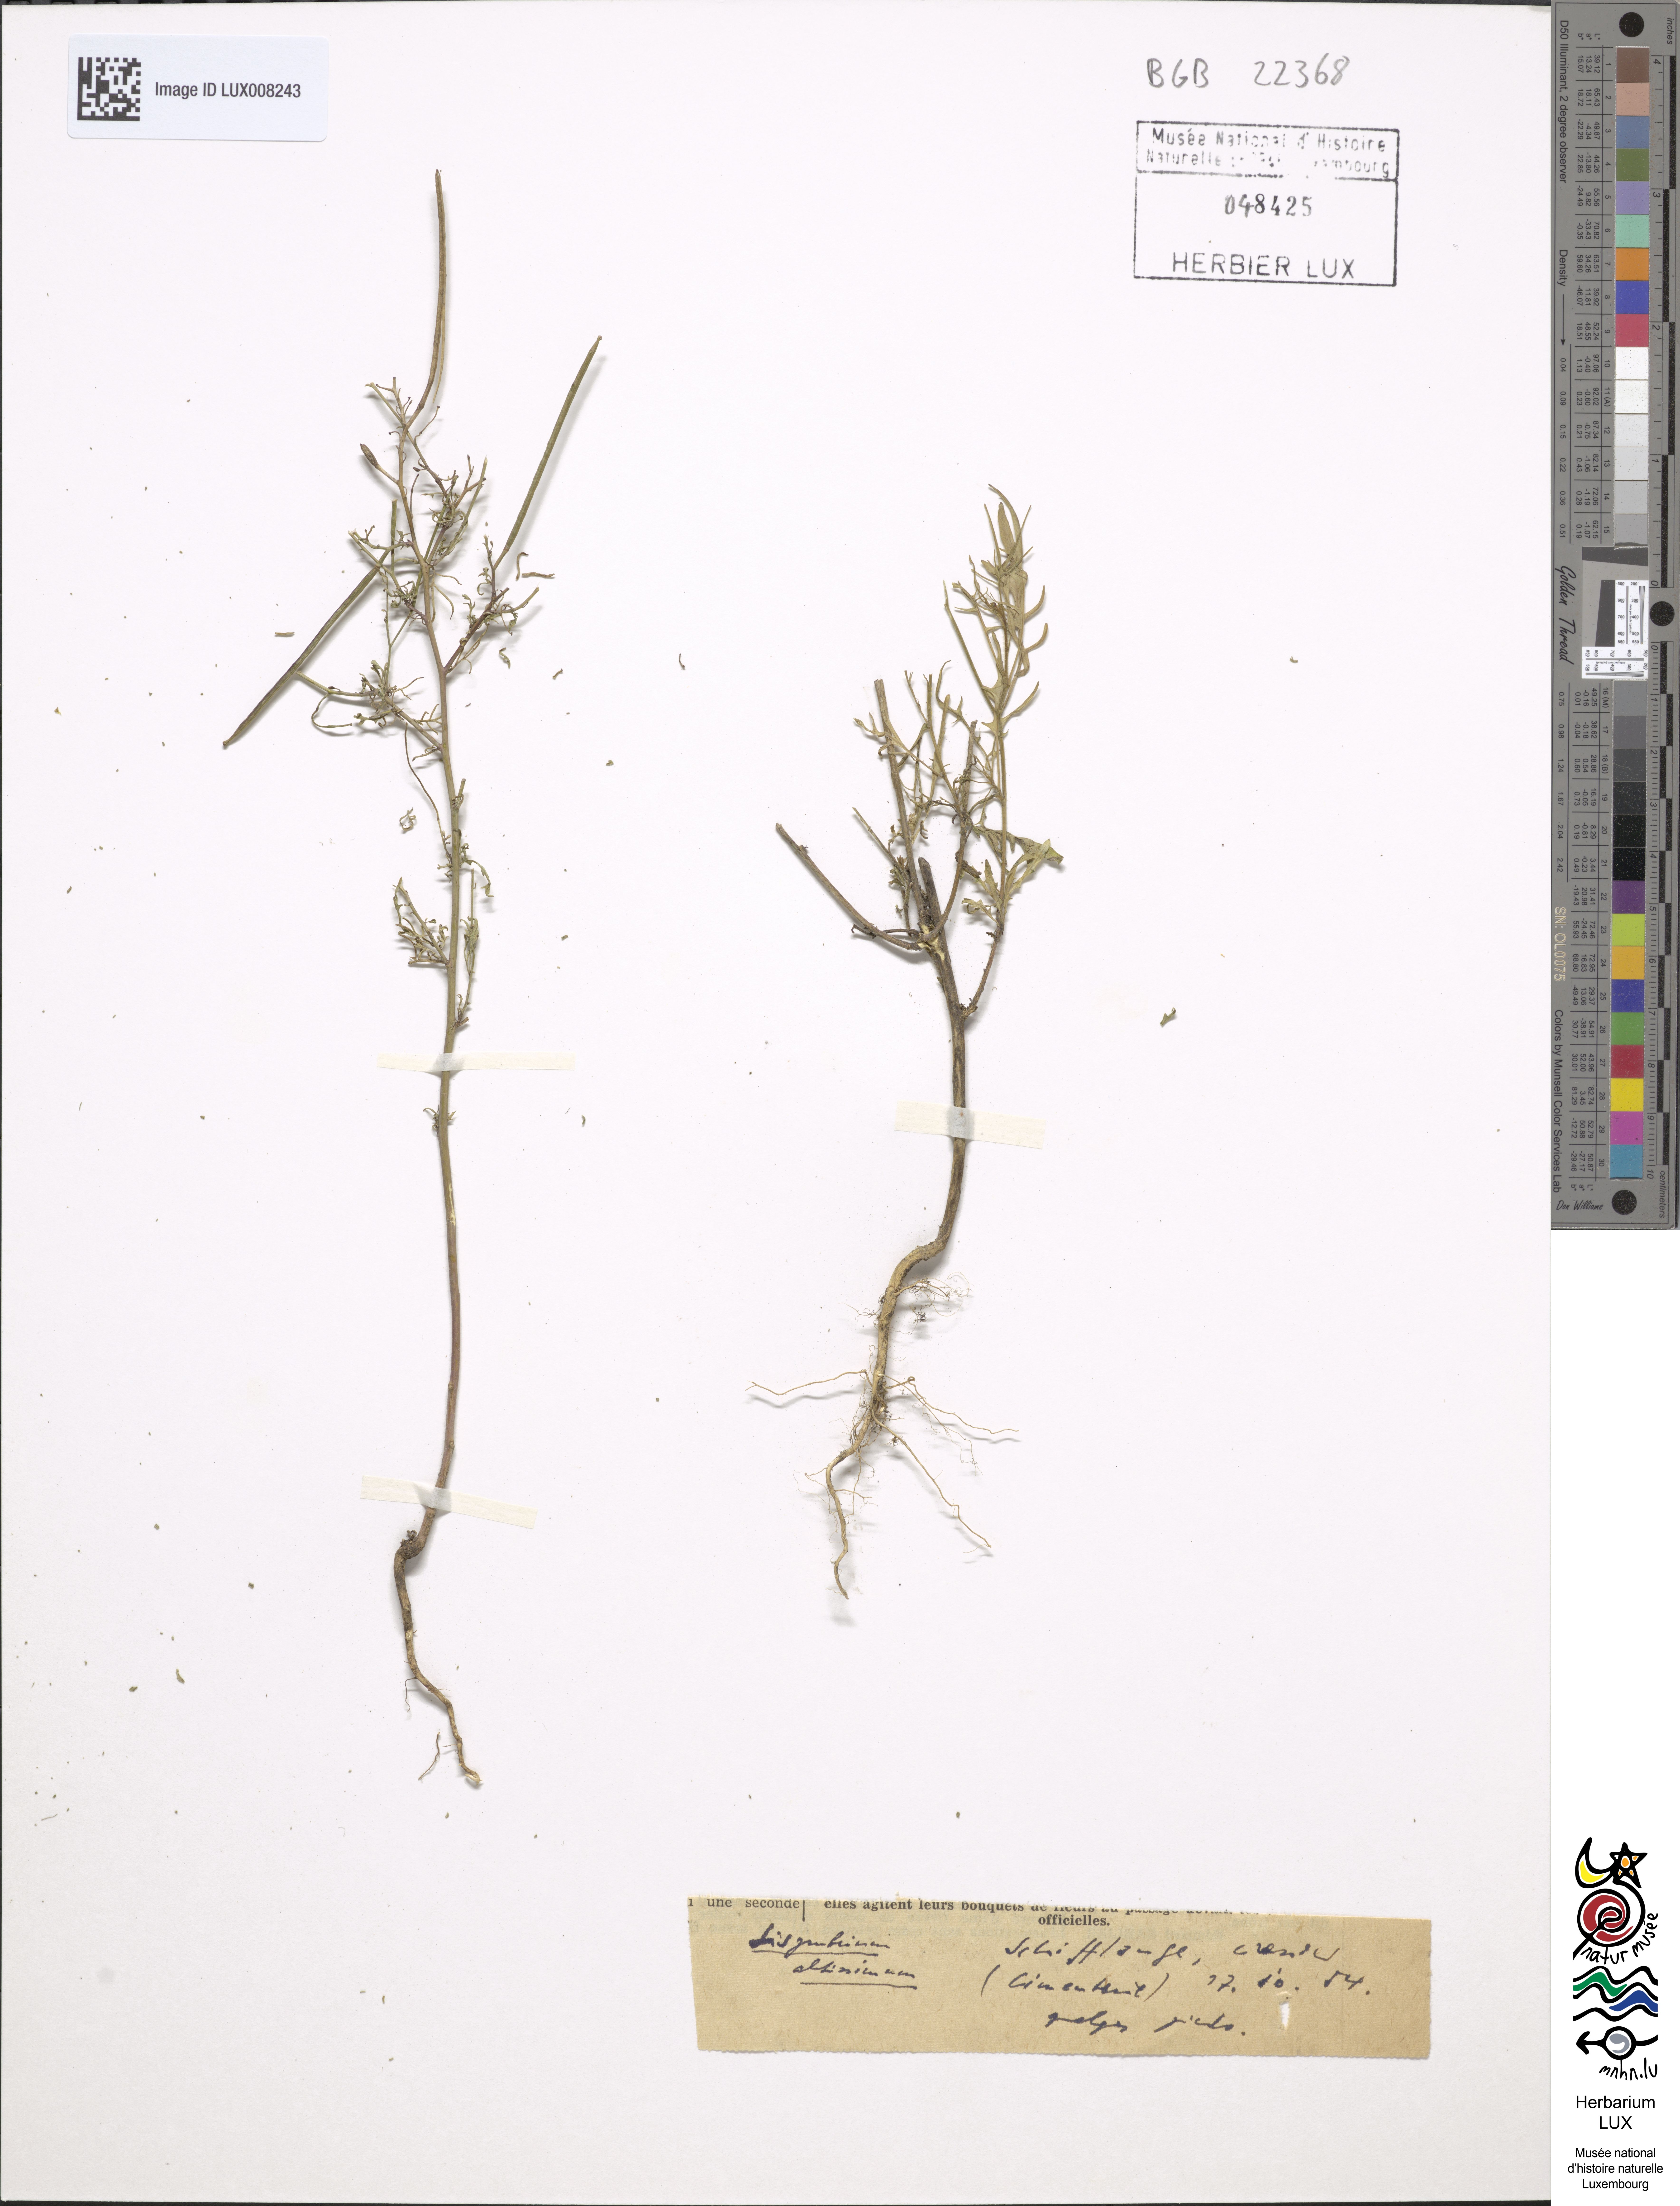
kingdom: Plantae
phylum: Tracheophyta
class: Magnoliopsida
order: Brassicales
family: Brassicaceae
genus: Sisymbrium
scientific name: Sisymbrium altissimum
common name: Tall rocket
